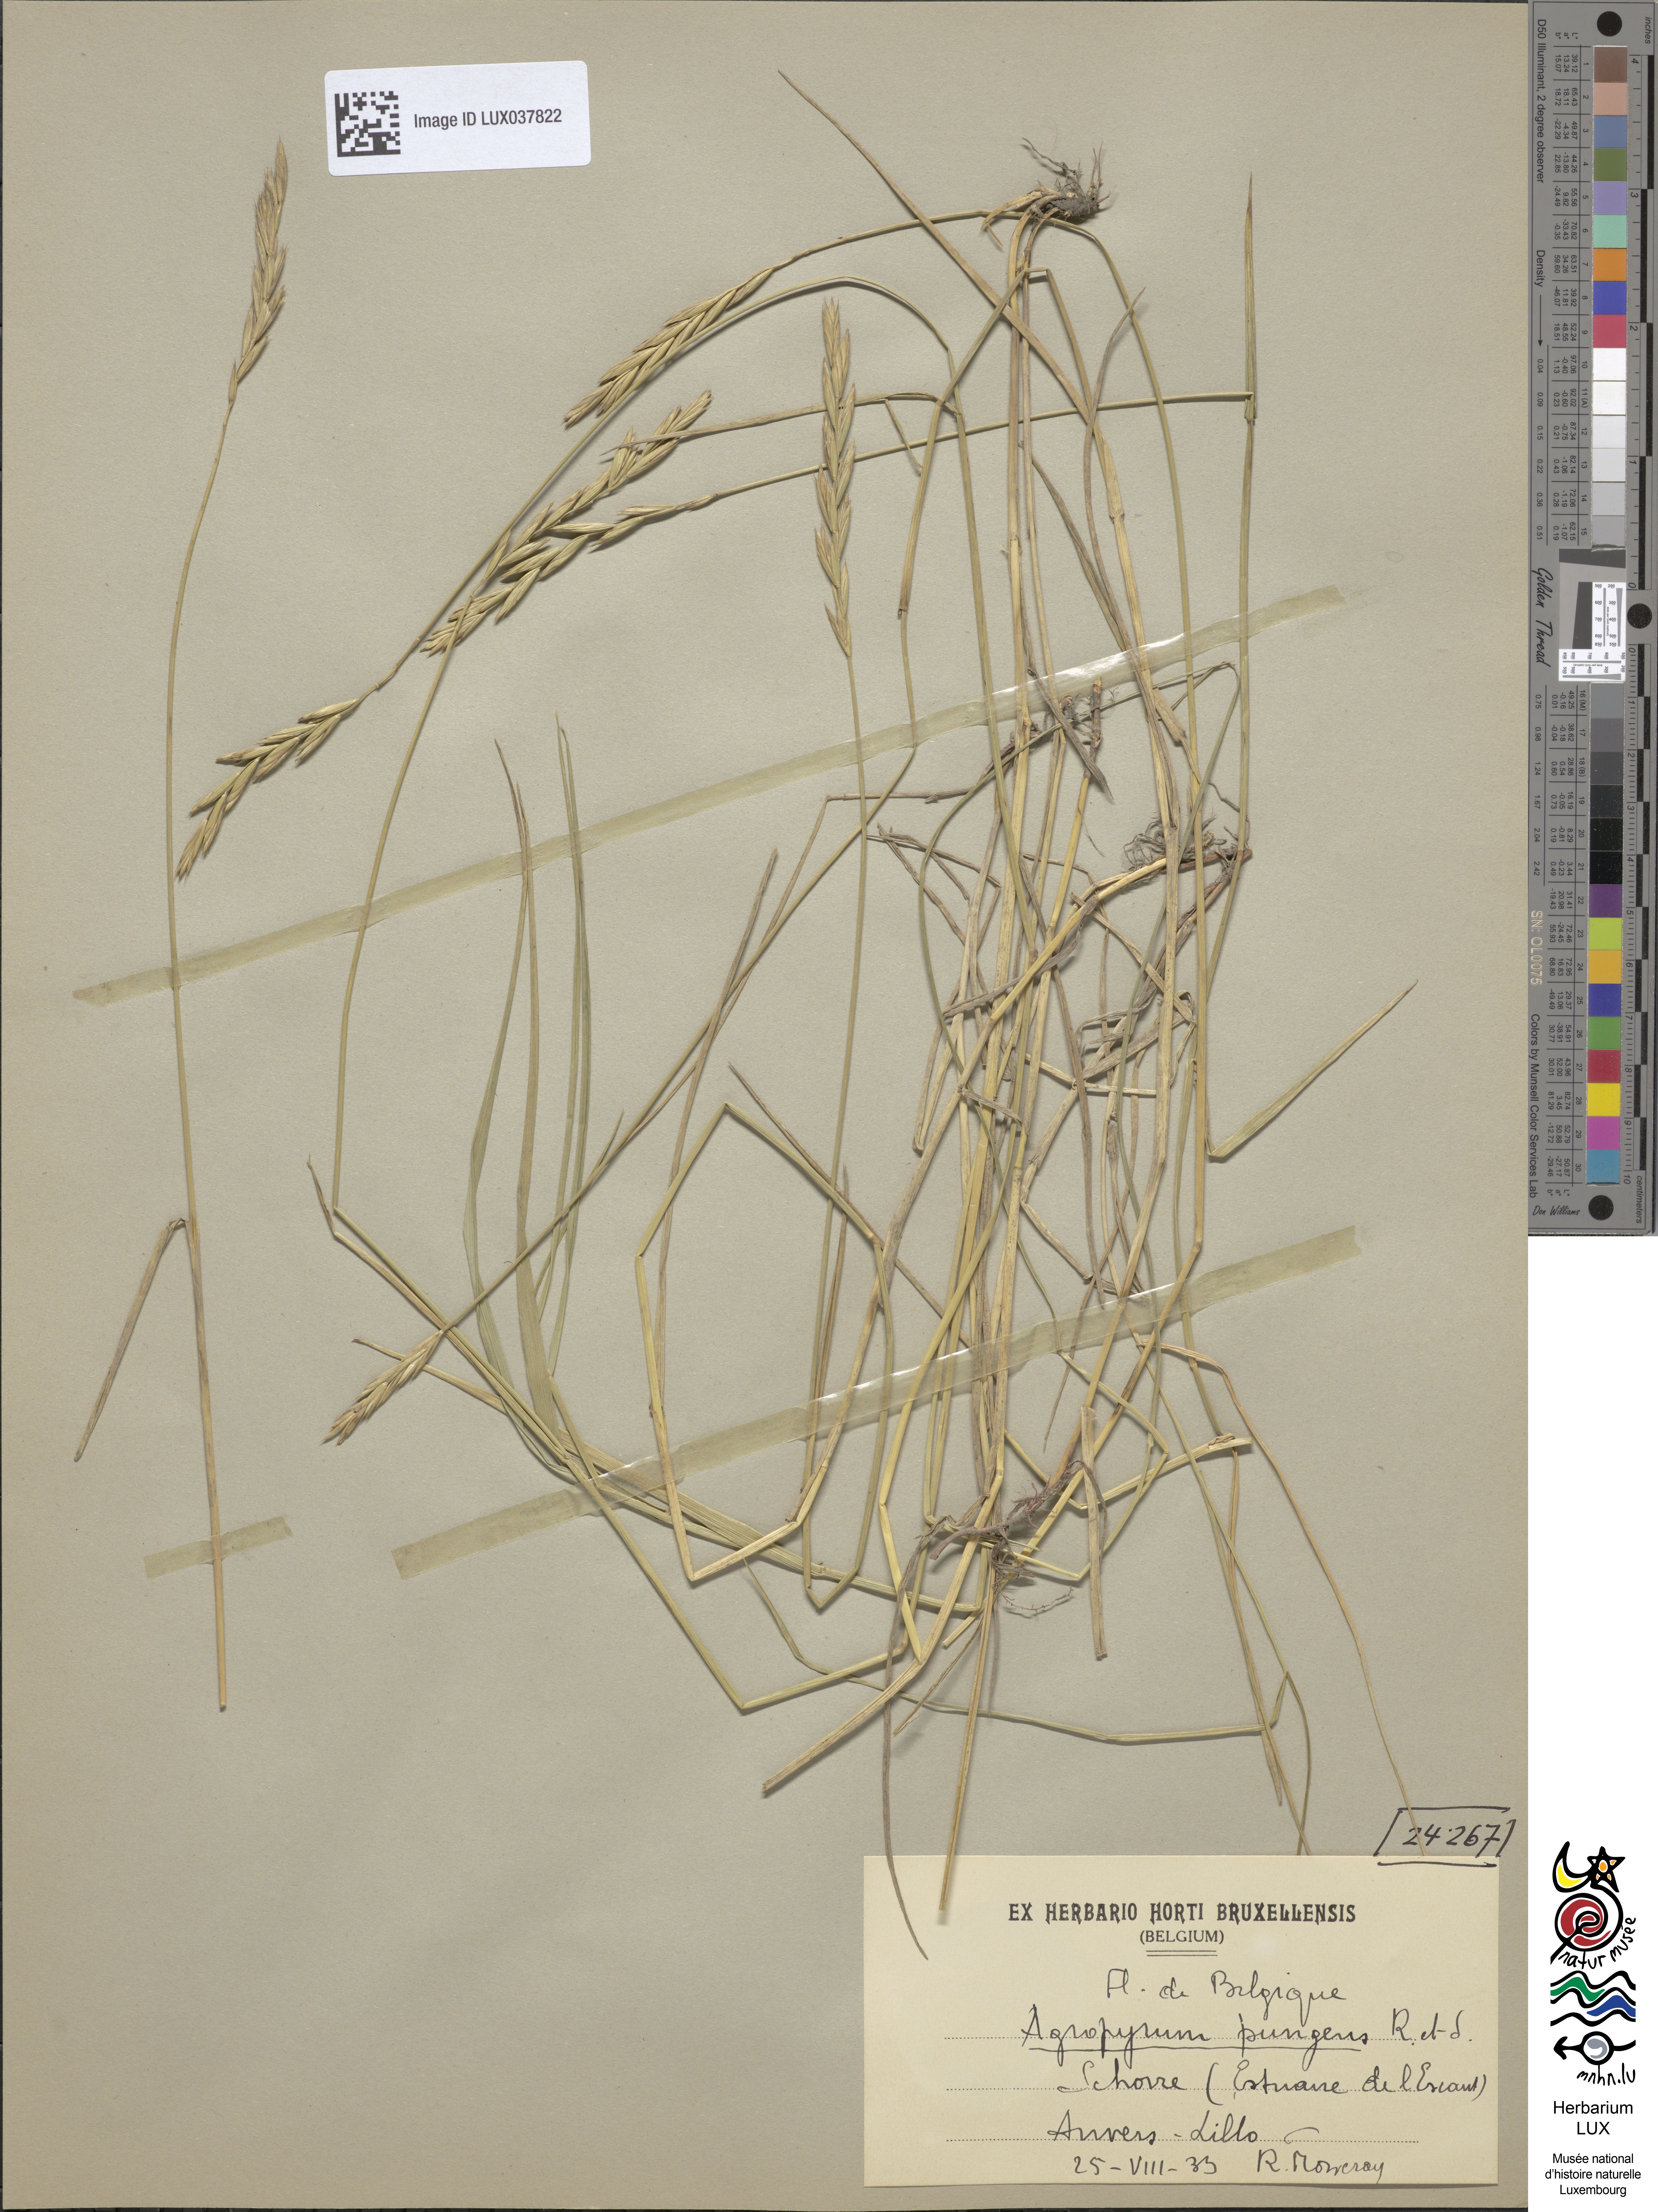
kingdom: Plantae
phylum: Tracheophyta
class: Liliopsida
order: Poales
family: Poaceae
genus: Elymus
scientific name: Elymus pungens
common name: Sea couch
